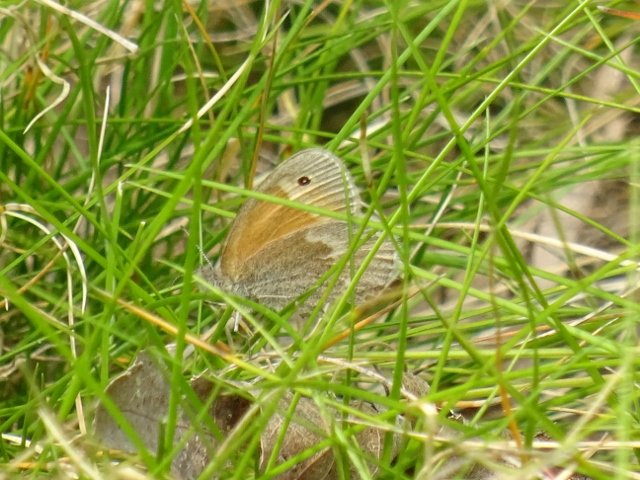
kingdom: Animalia
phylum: Arthropoda
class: Insecta
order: Lepidoptera
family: Nymphalidae
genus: Coenonympha
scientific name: Coenonympha tullia
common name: Large Heath
